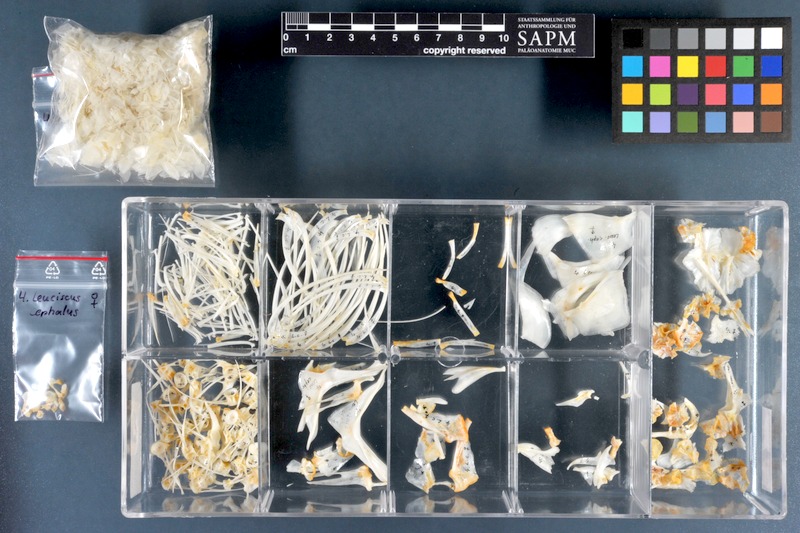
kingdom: Animalia
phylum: Chordata
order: Cypriniformes
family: Cyprinidae
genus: Squalius
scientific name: Squalius cephalus
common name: Chub
